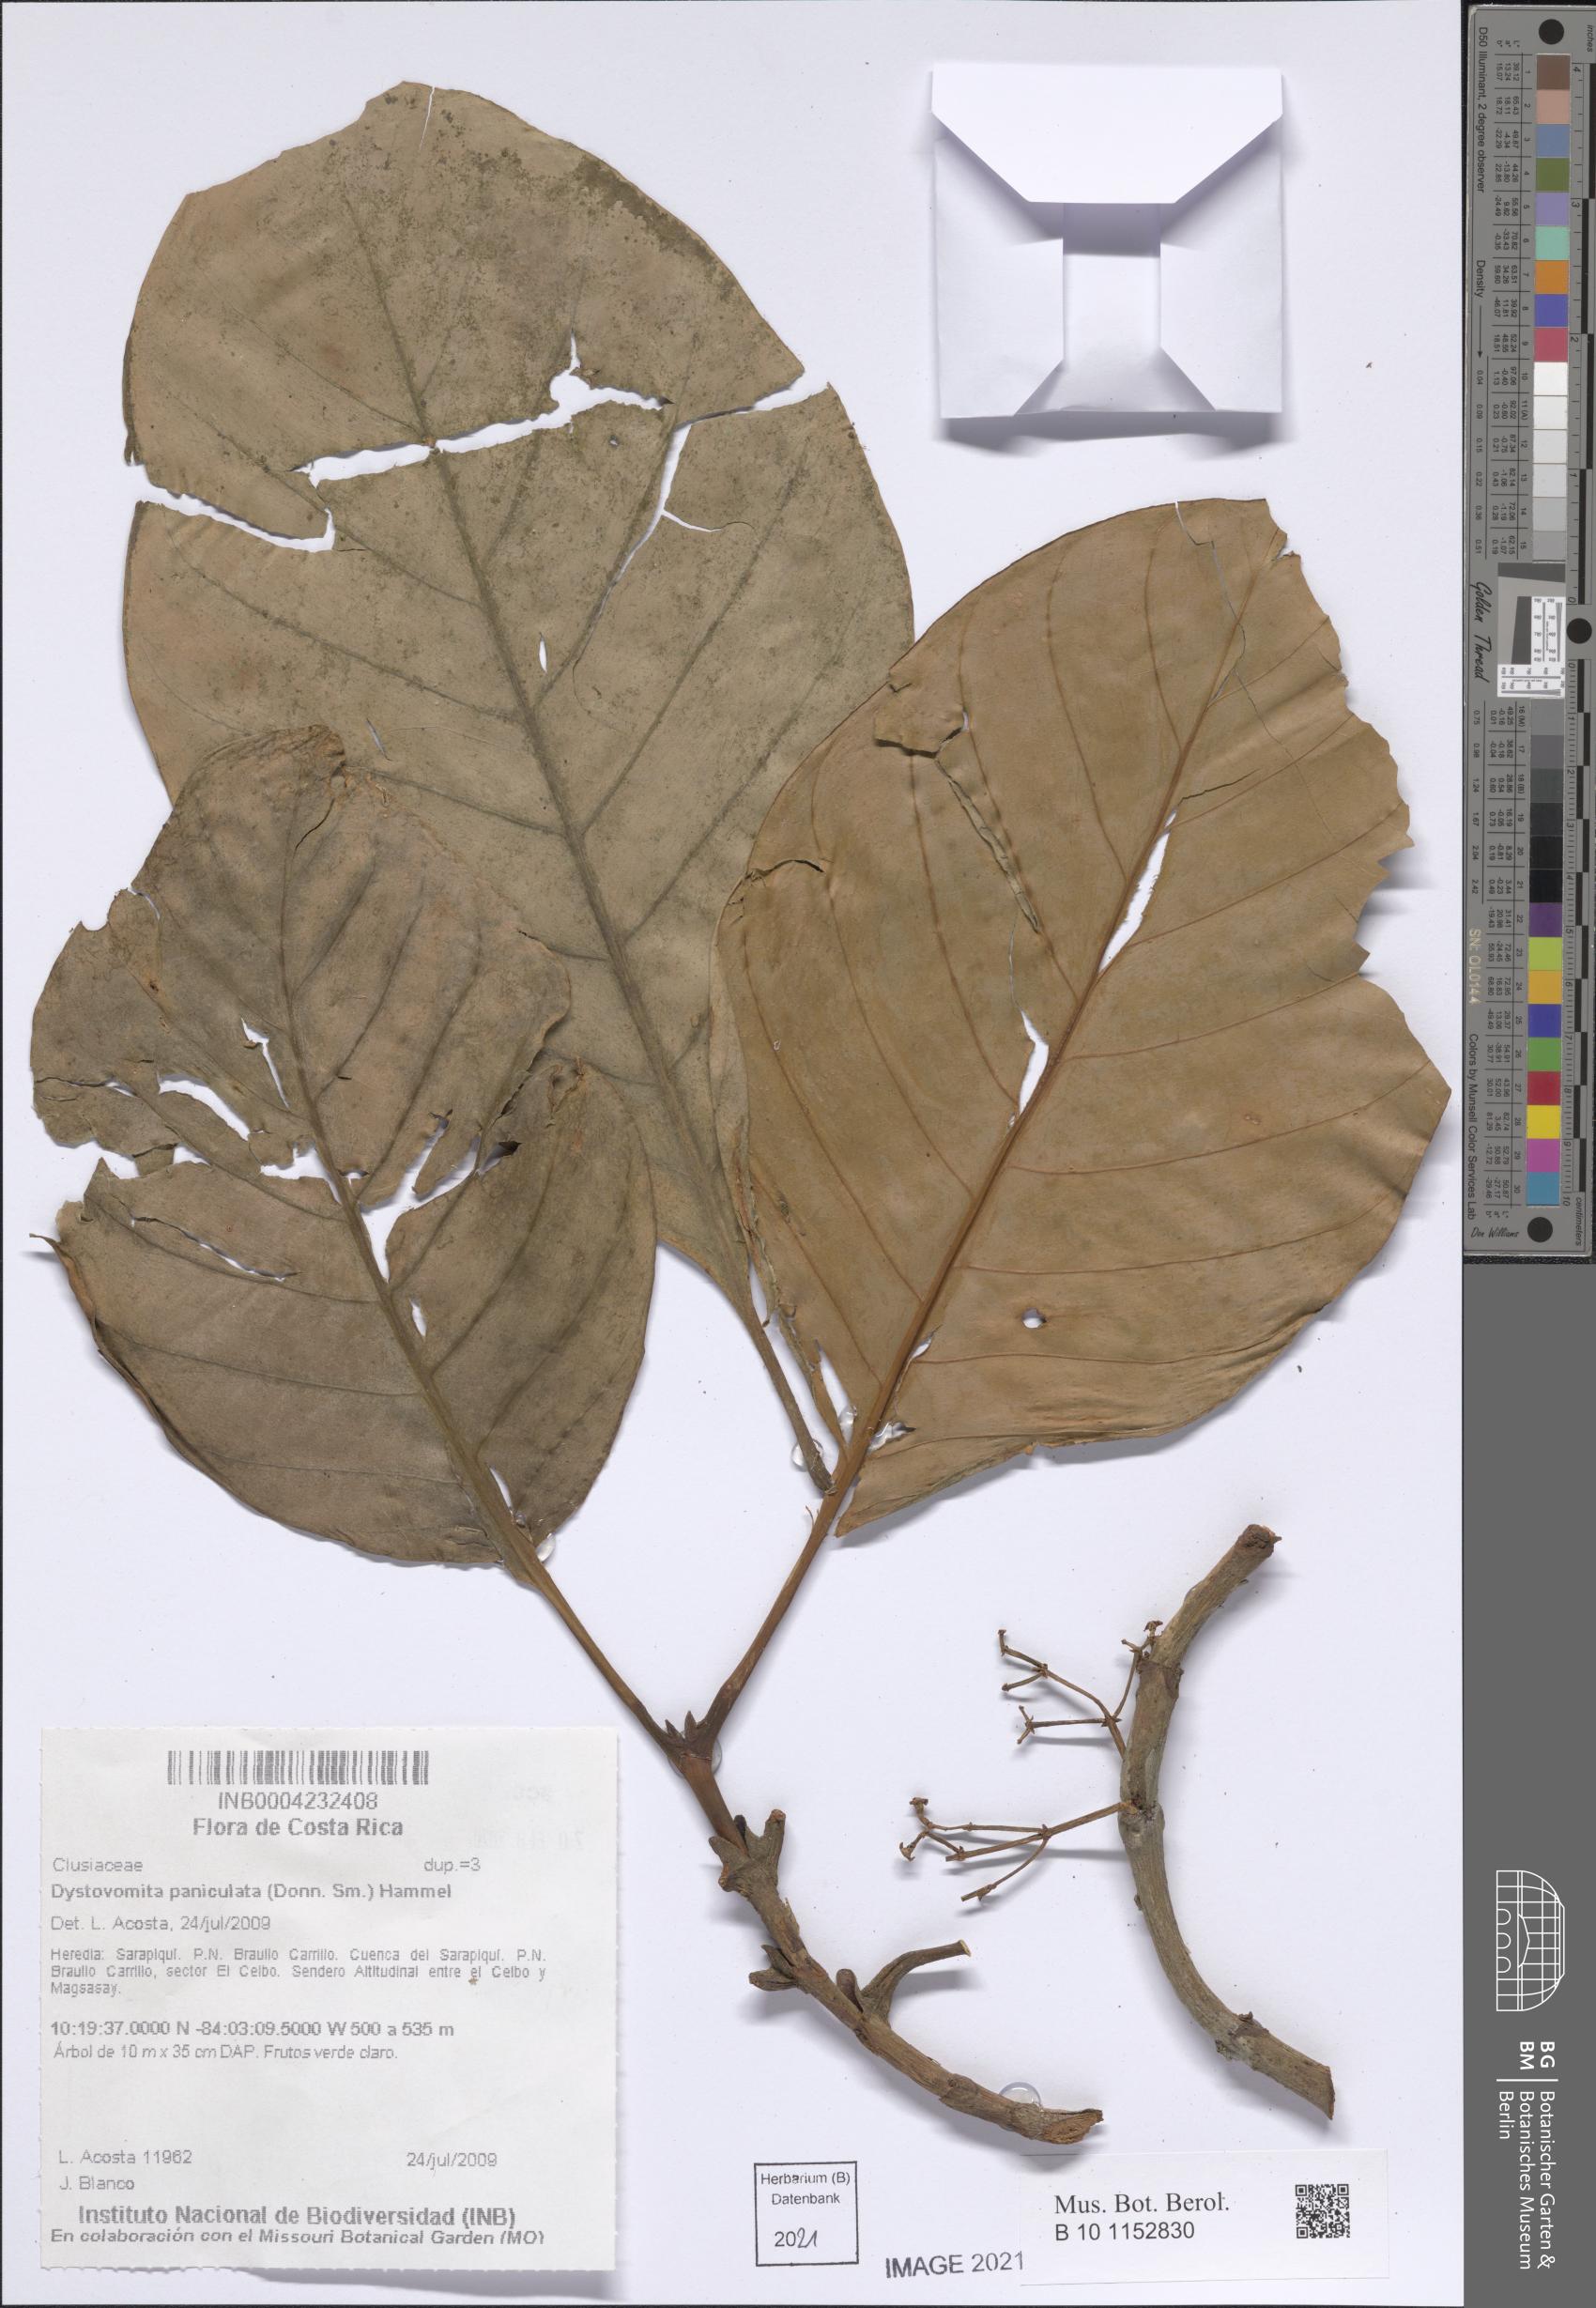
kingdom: Plantae
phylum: Tracheophyta
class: Magnoliopsida
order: Malpighiales
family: Clusiaceae
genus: Dystovomita
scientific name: Dystovomita paniculata
